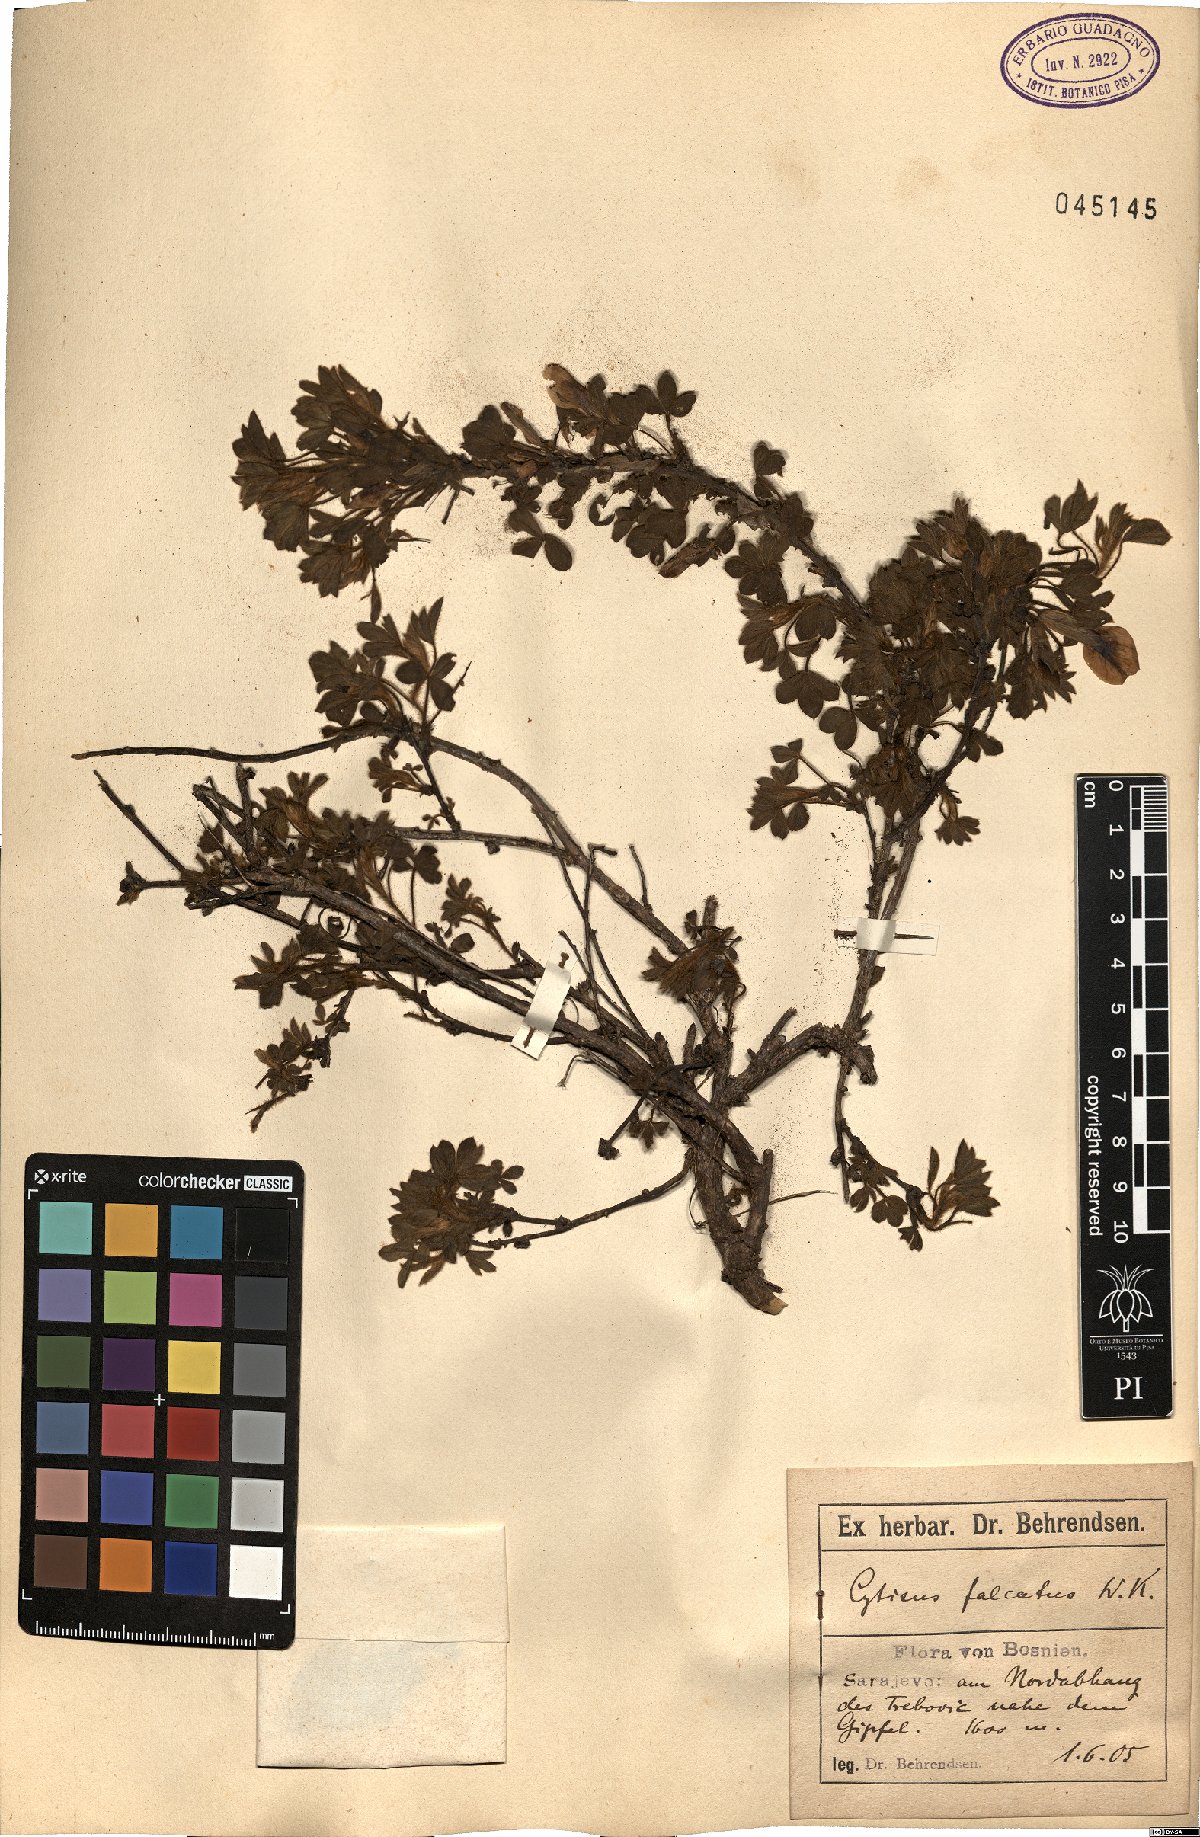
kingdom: Plantae
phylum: Tracheophyta
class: Magnoliopsida
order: Fabales
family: Fabaceae
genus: Chamaecytisus
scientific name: Chamaecytisus hirsutus
